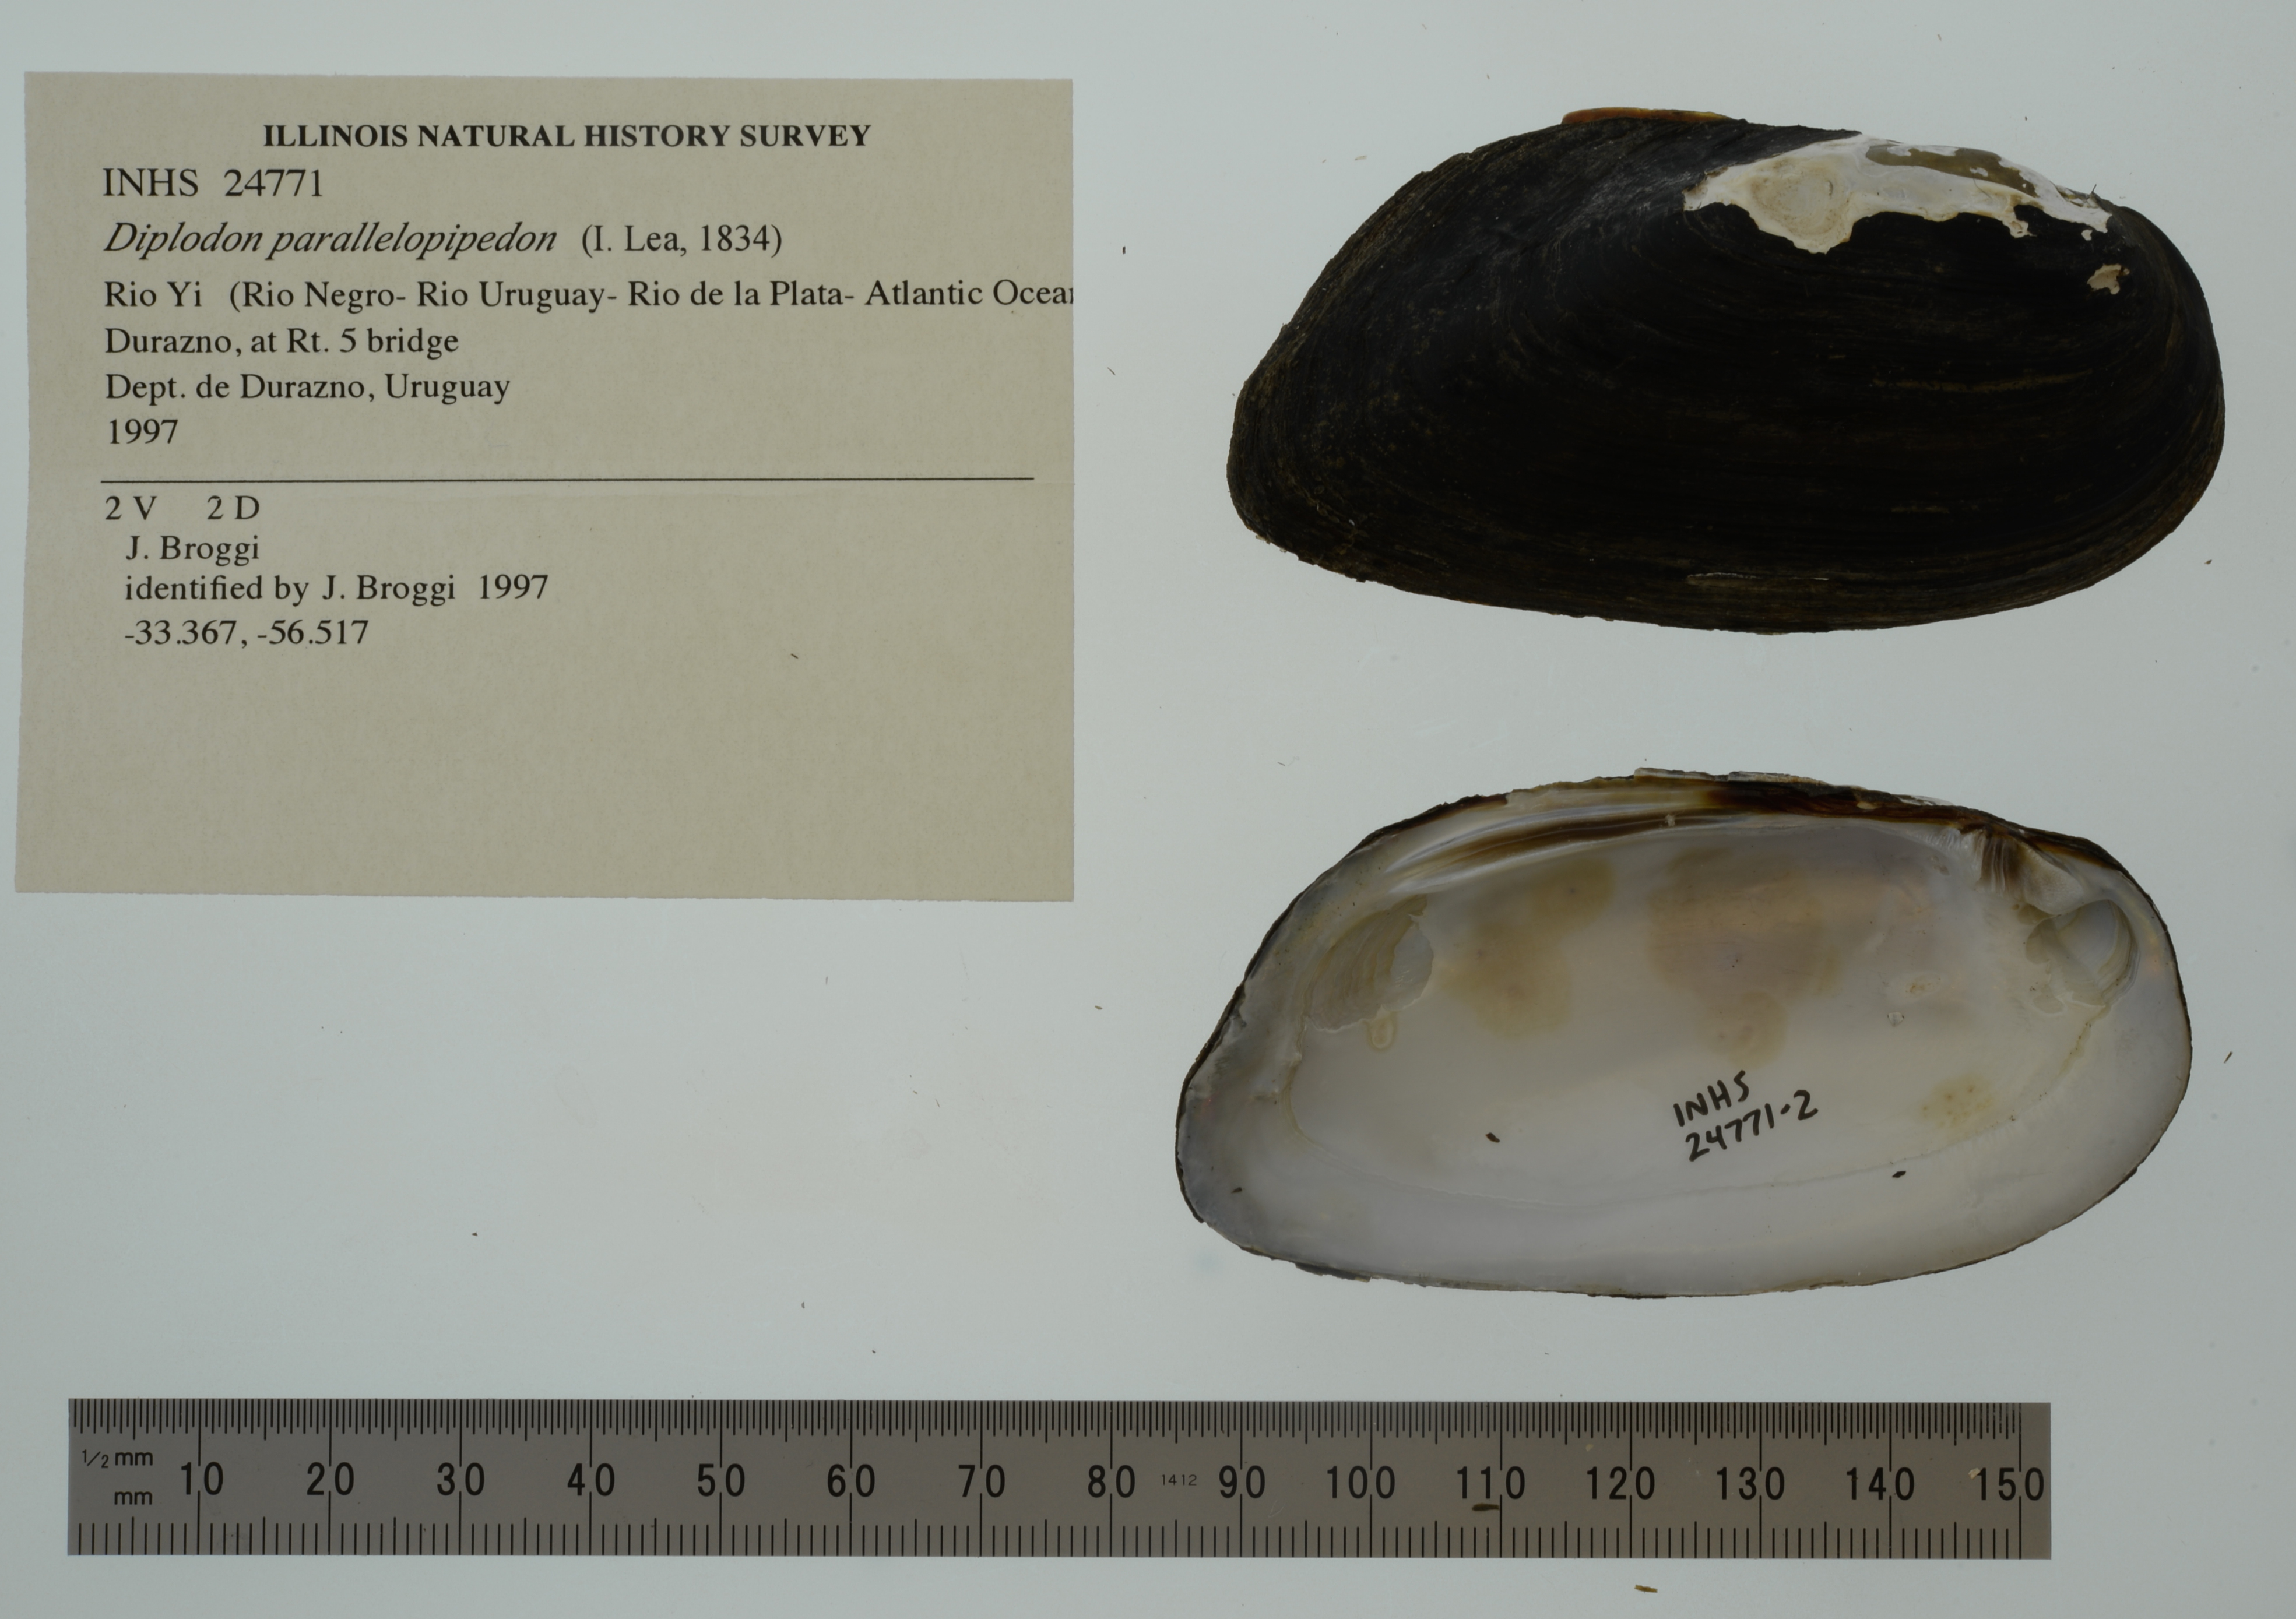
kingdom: Animalia
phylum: Mollusca
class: Bivalvia
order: Unionida
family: Hyriidae
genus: Diplodon
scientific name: Diplodon parallelopipedon
